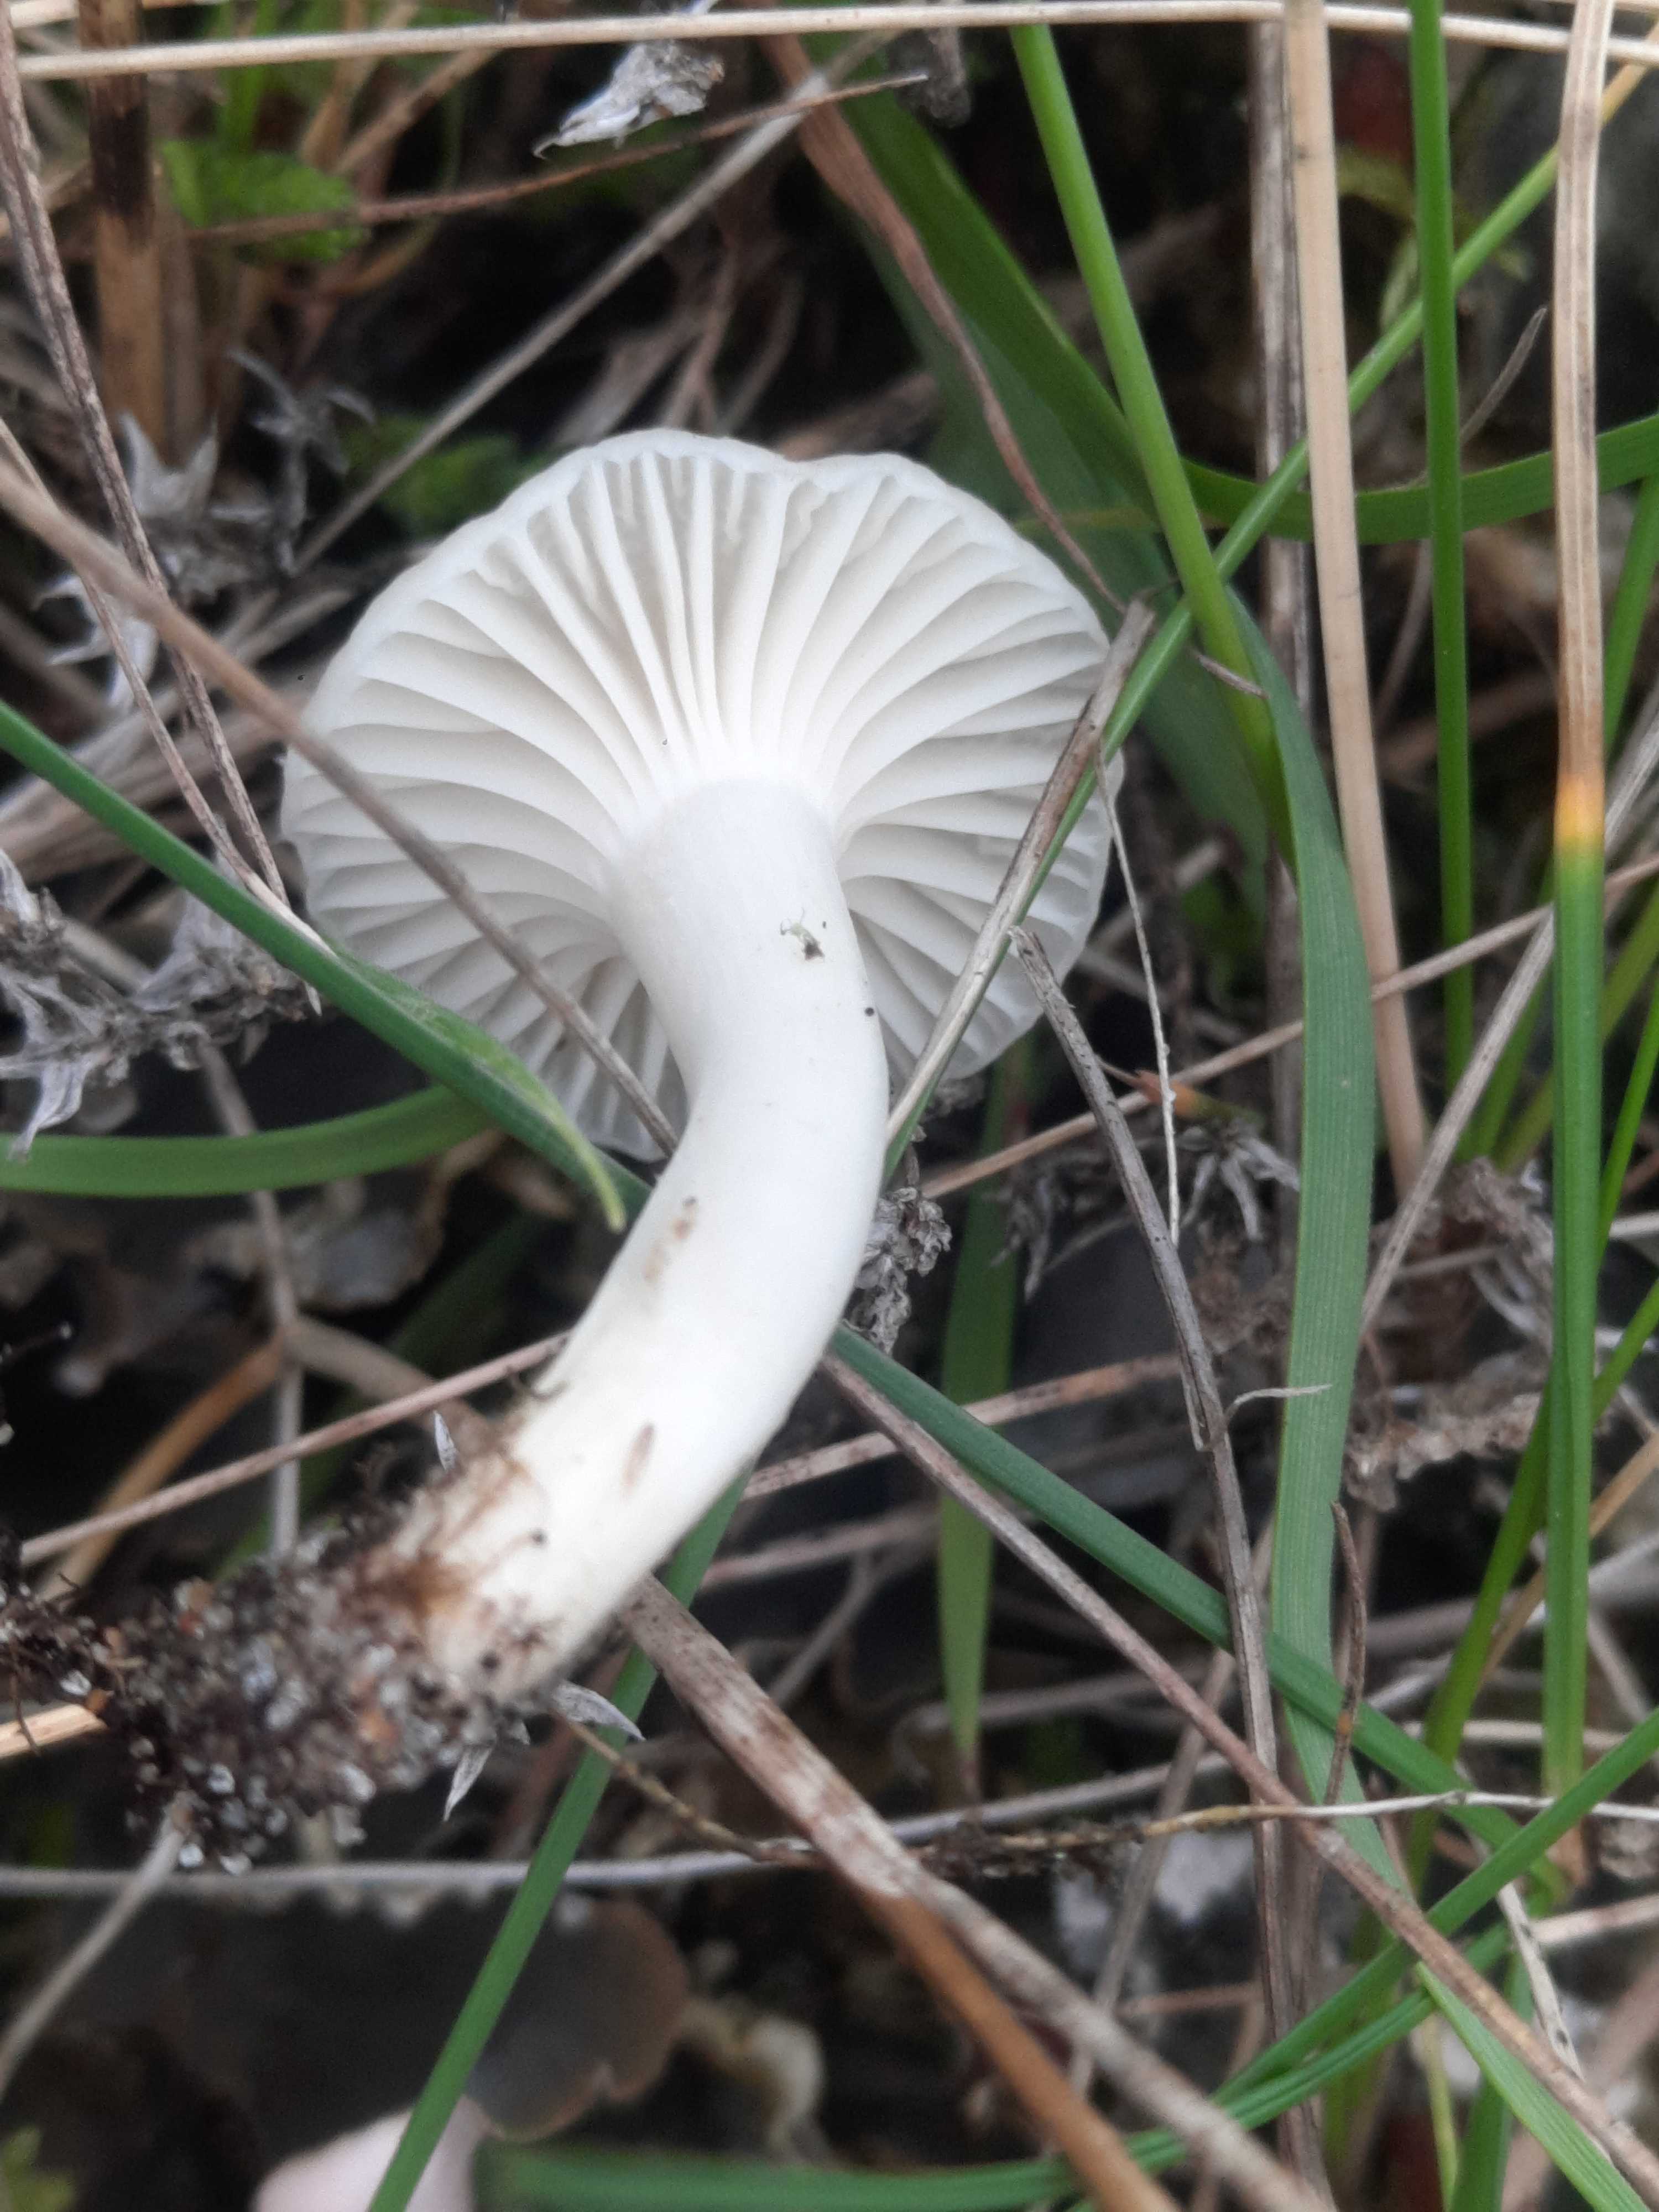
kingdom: Fungi
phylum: Basidiomycota
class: Agaricomycetes
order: Agaricales
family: Hygrophoraceae
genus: Cuphophyllus
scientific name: Cuphophyllus virgineus
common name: snehvid vokshat
